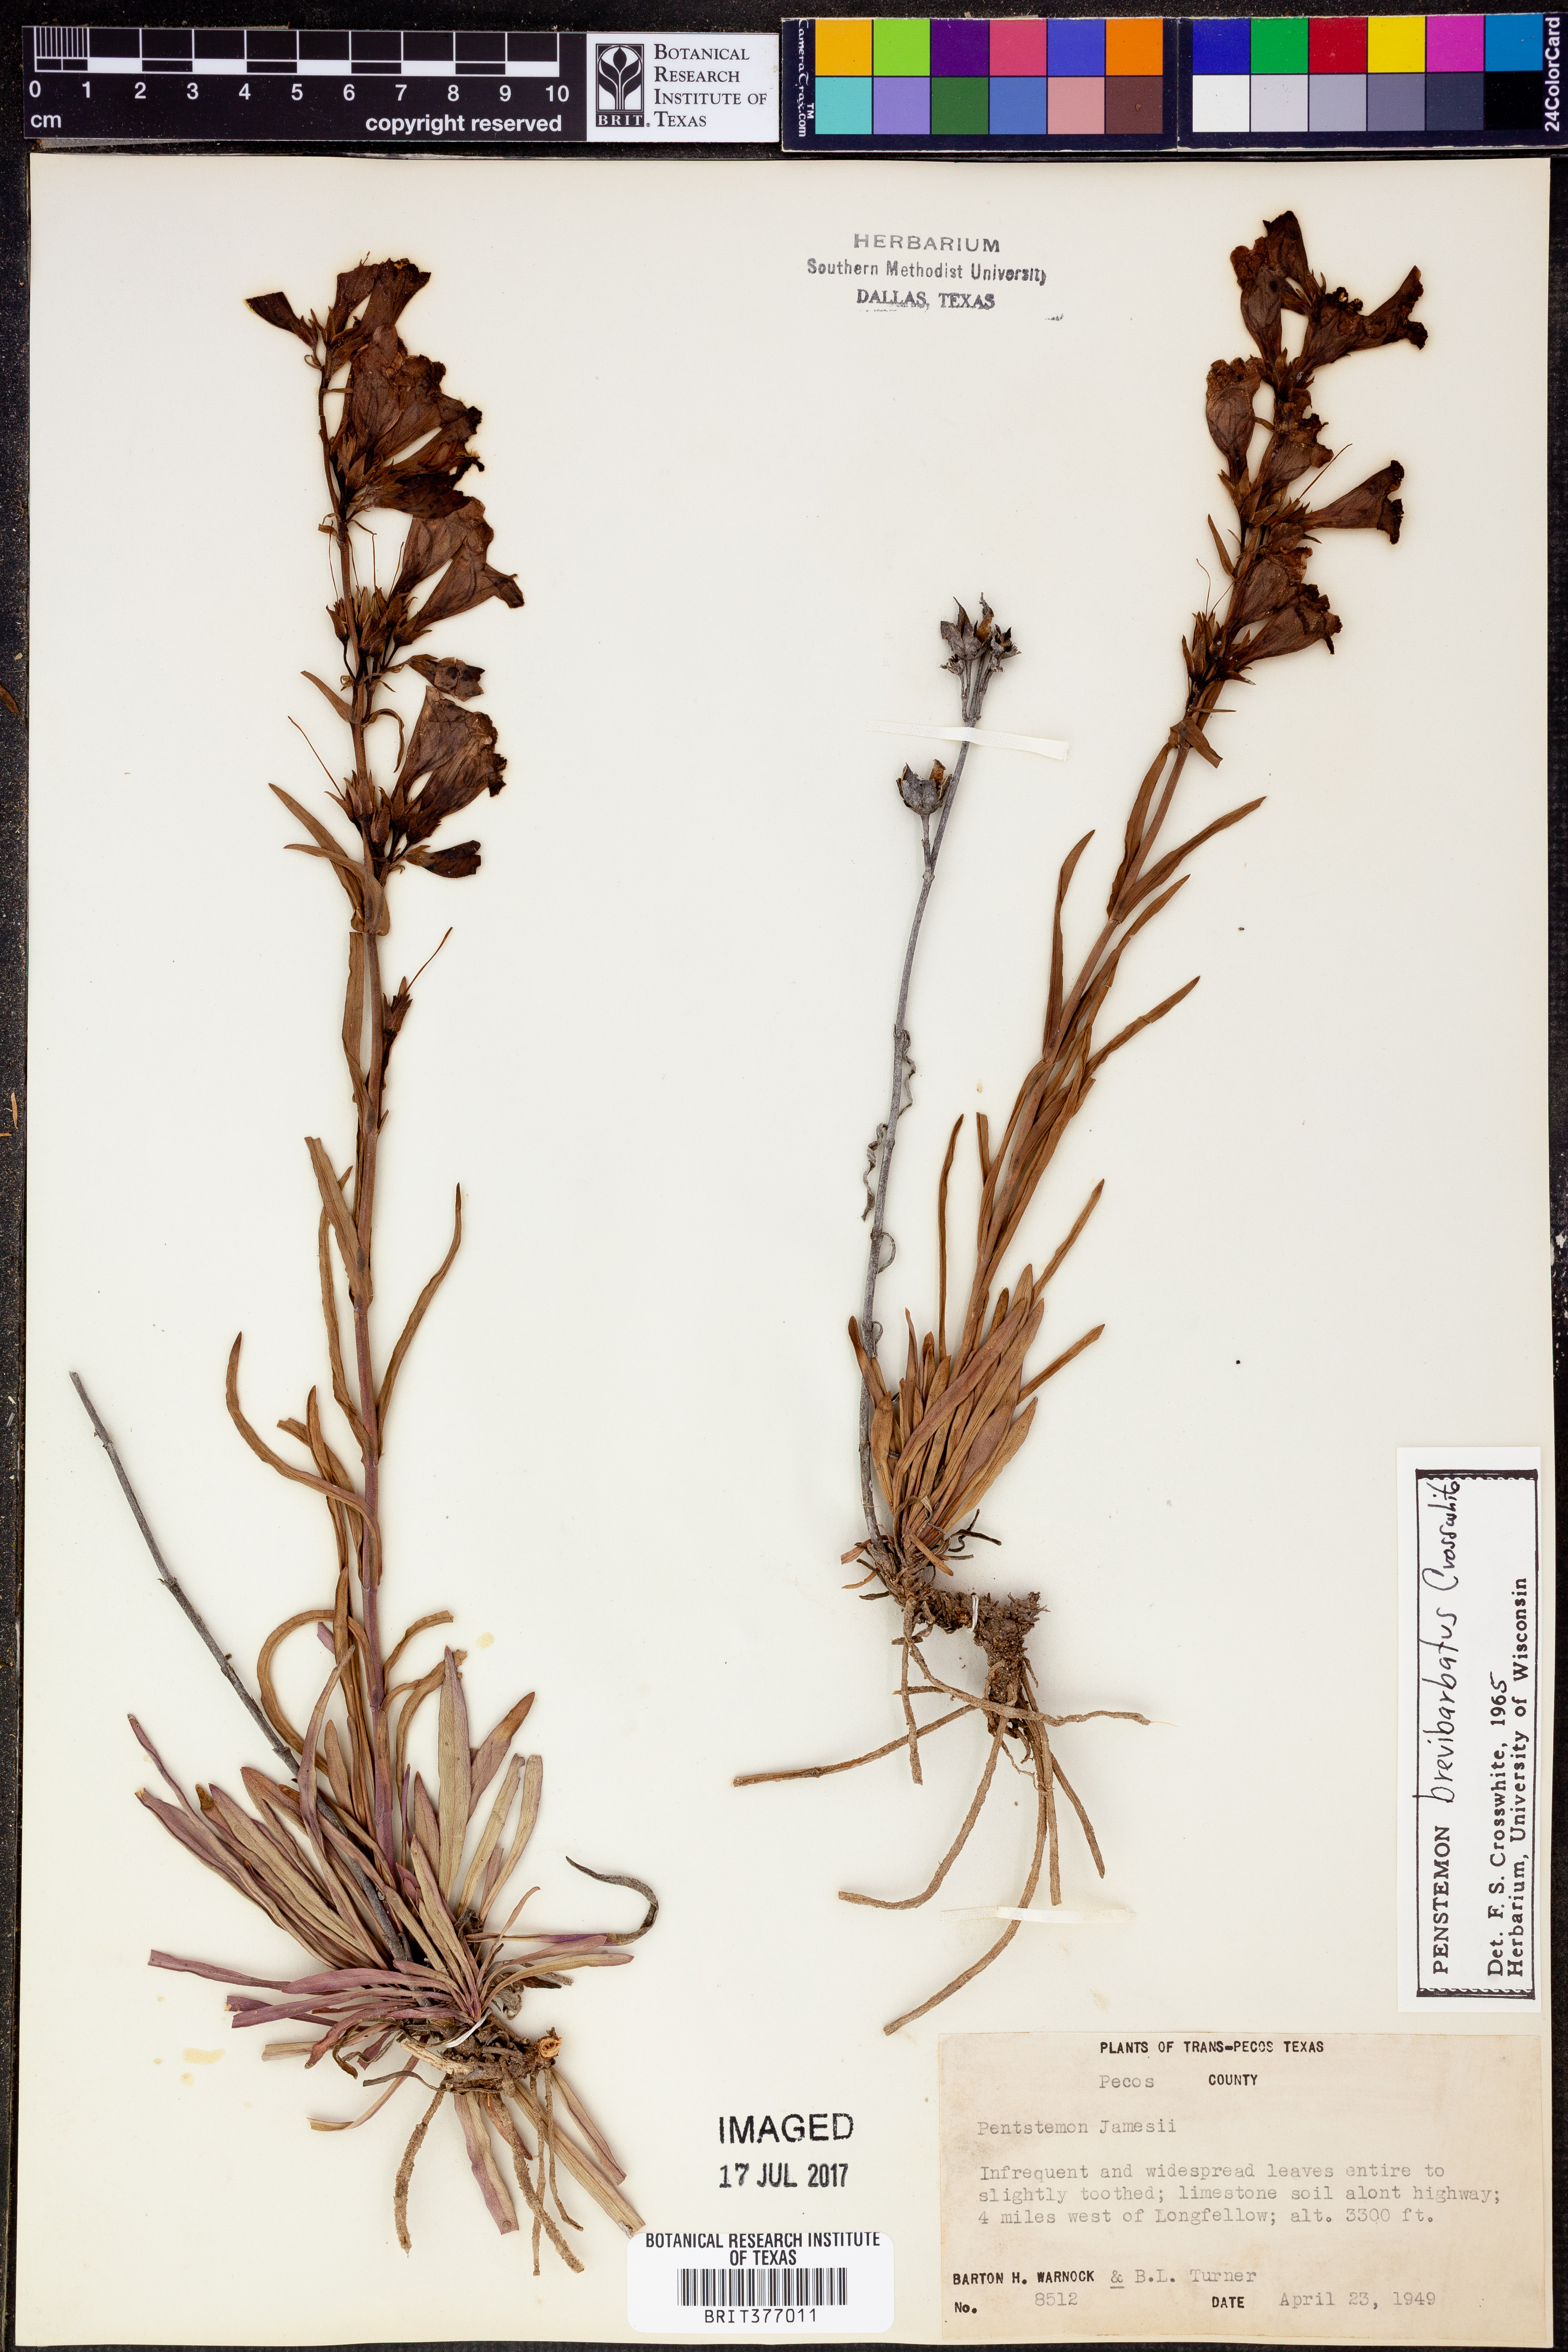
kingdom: Plantae
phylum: Tracheophyta
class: Magnoliopsida
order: Lamiales
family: Plantaginaceae
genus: Penstemon
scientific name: Penstemon
